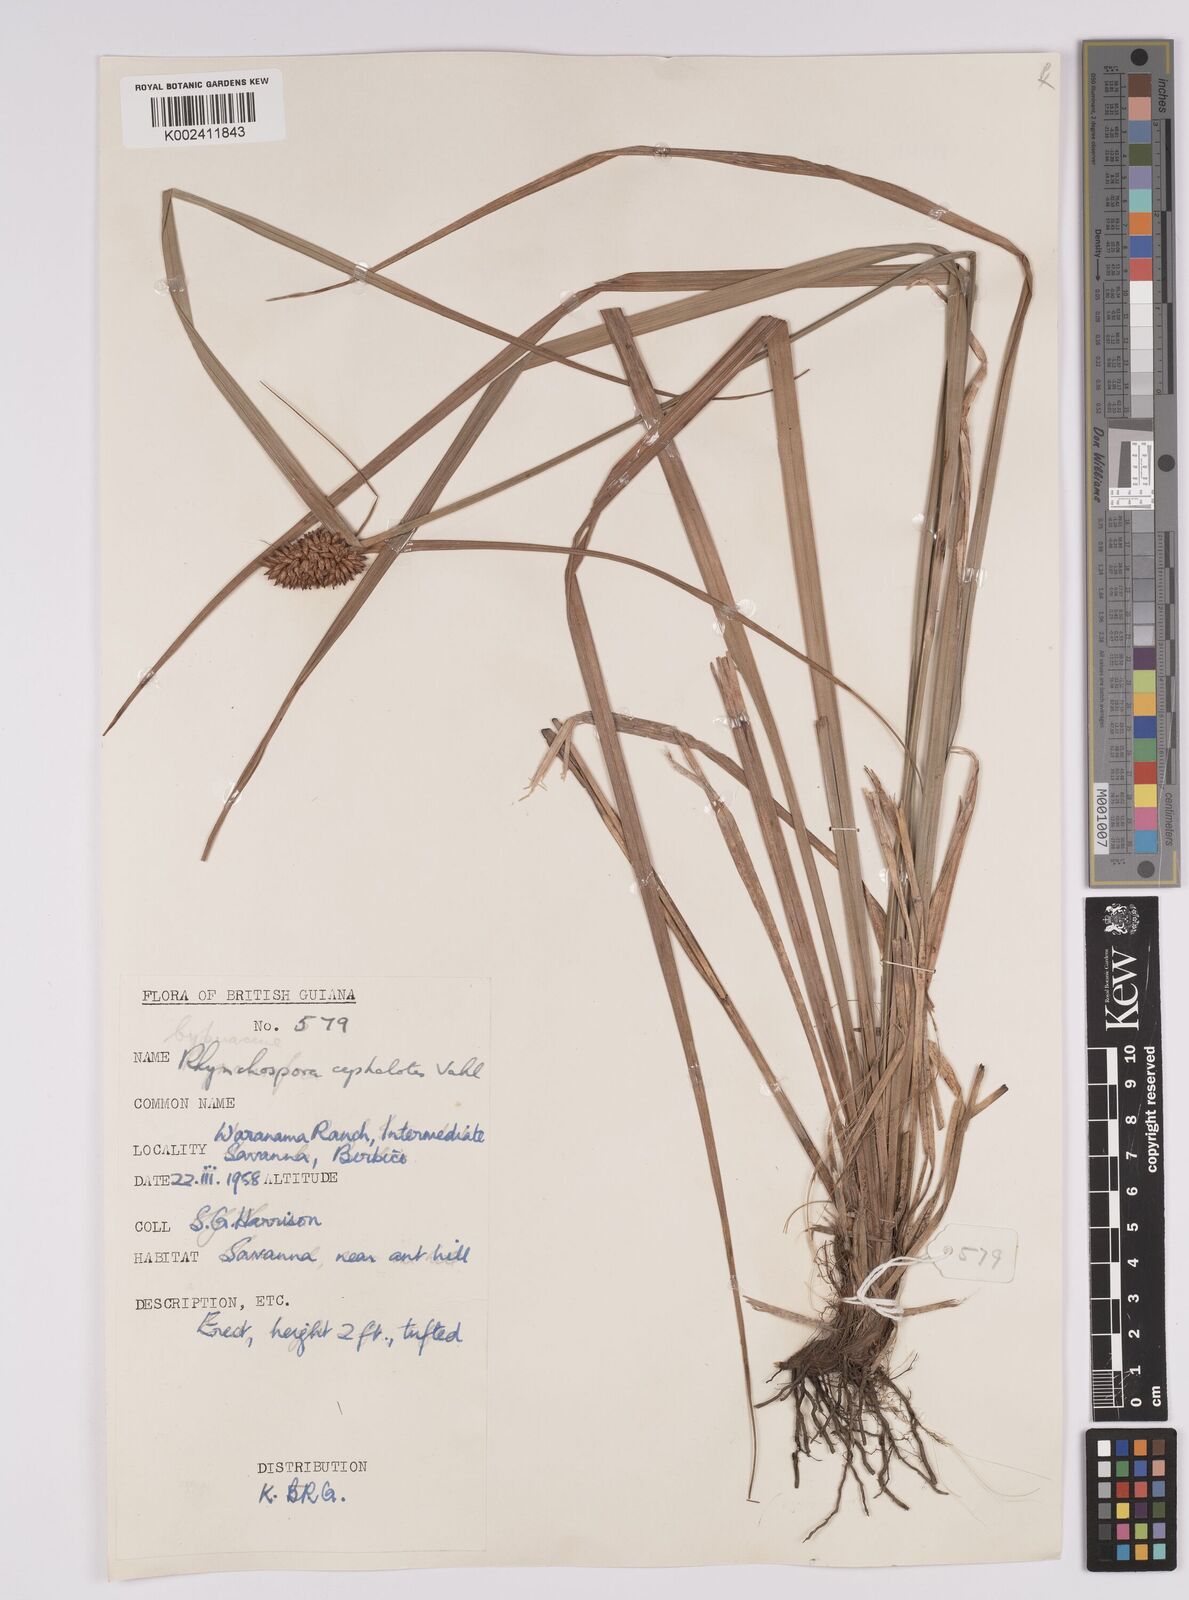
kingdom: Plantae
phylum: Tracheophyta
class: Liliopsida
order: Poales
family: Cyperaceae
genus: Rhynchospora
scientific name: Rhynchospora cephalotes
